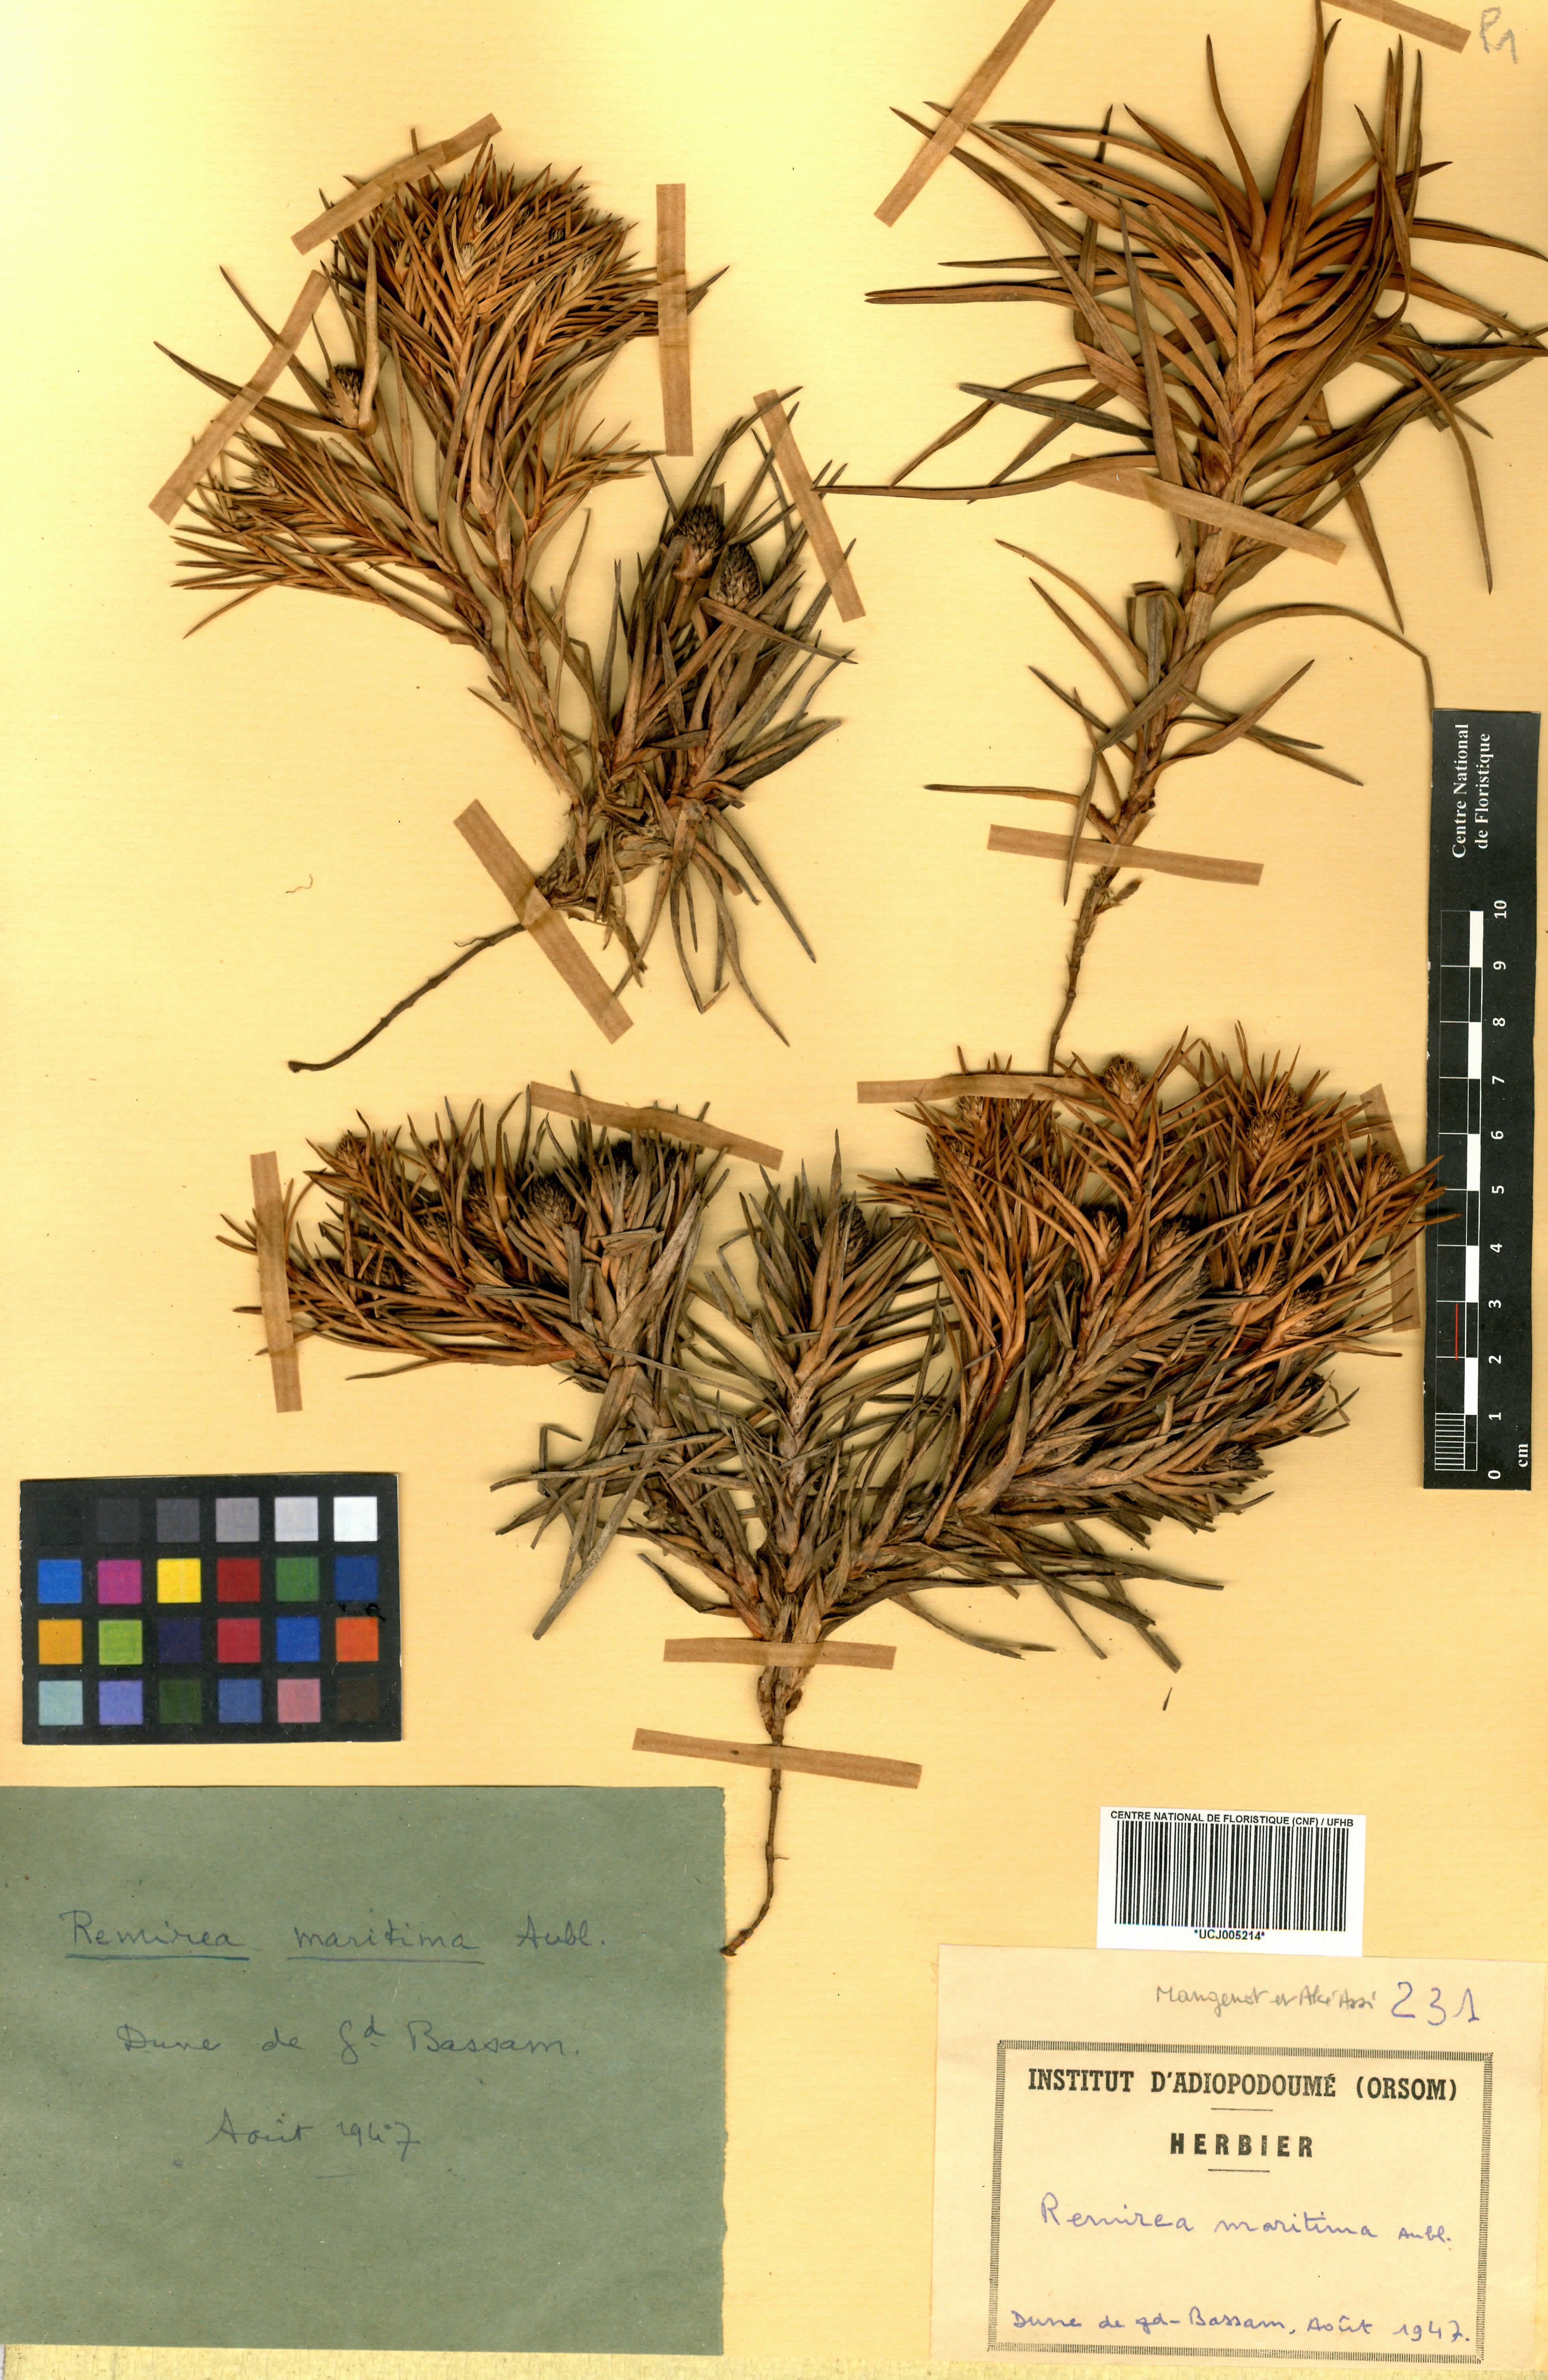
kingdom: Plantae
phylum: Tracheophyta
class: Liliopsida
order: Poales
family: Cyperaceae
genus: Cyperus
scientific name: Cyperus pedunculatus
